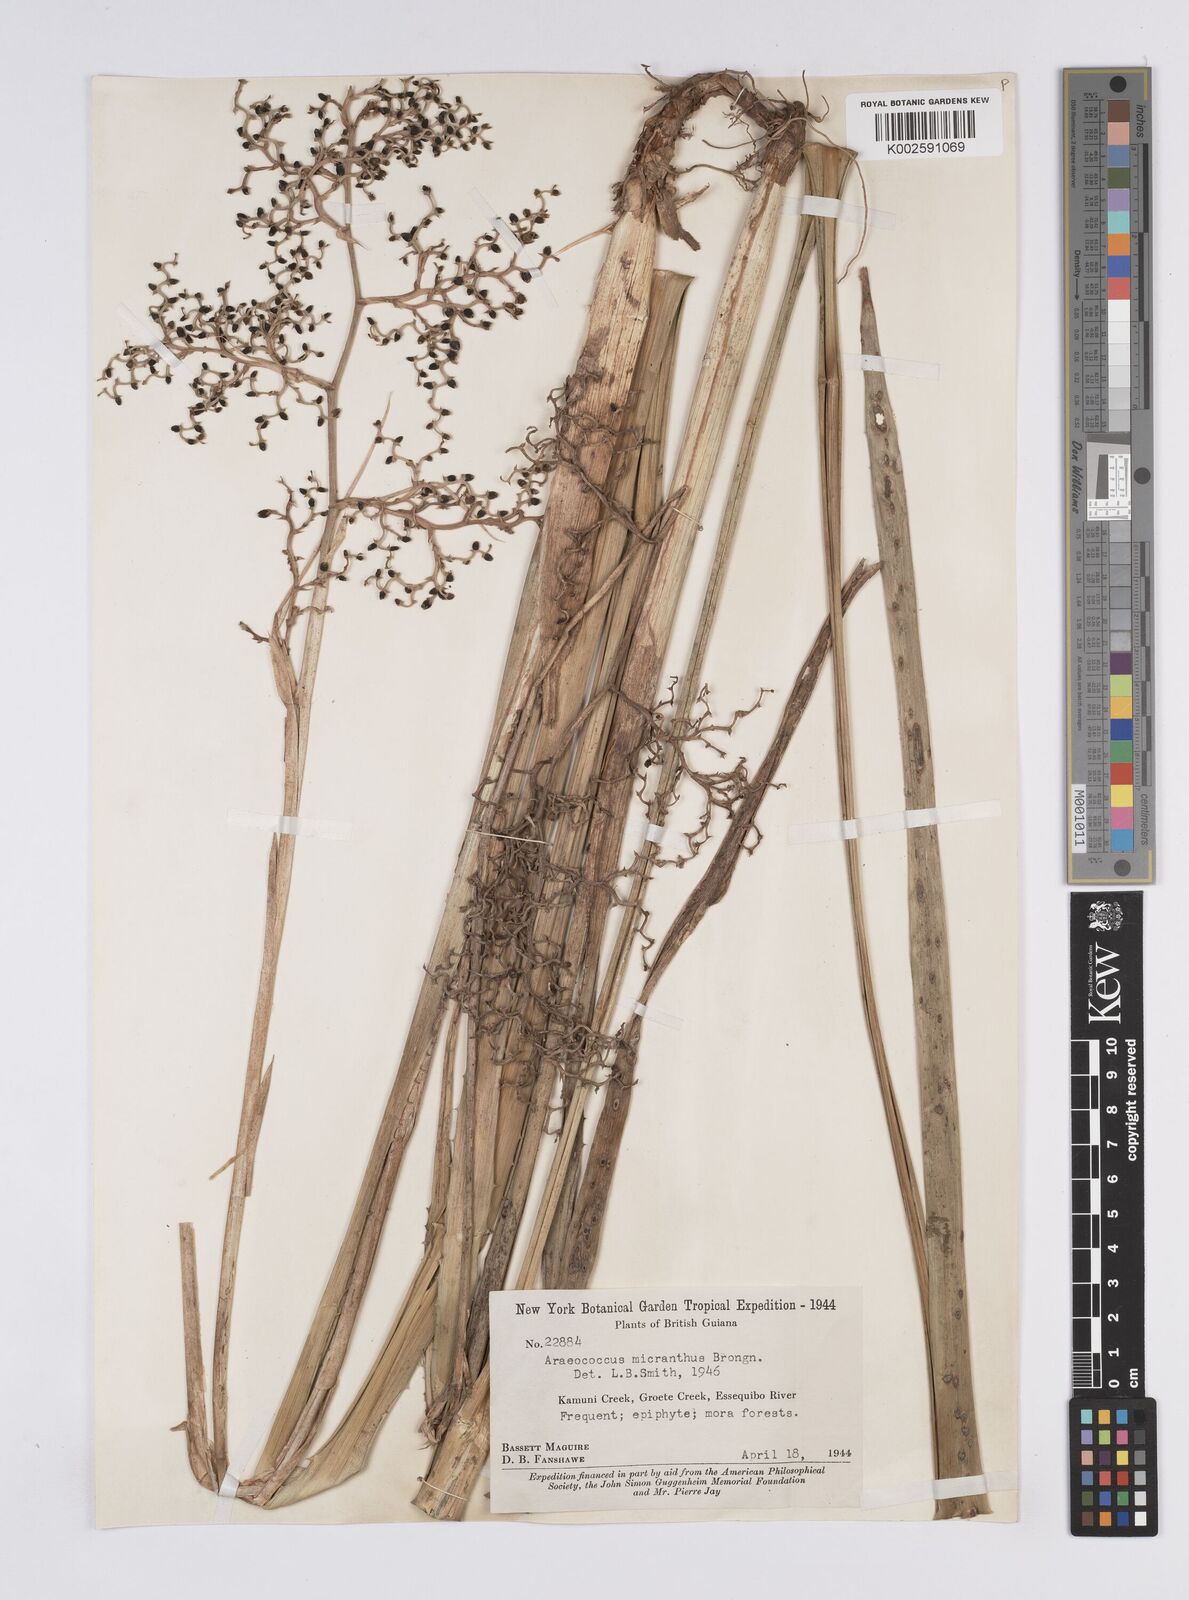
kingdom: Plantae
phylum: Tracheophyta
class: Liliopsida
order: Poales
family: Bromeliaceae
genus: Araeococcus
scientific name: Araeococcus micranthus
